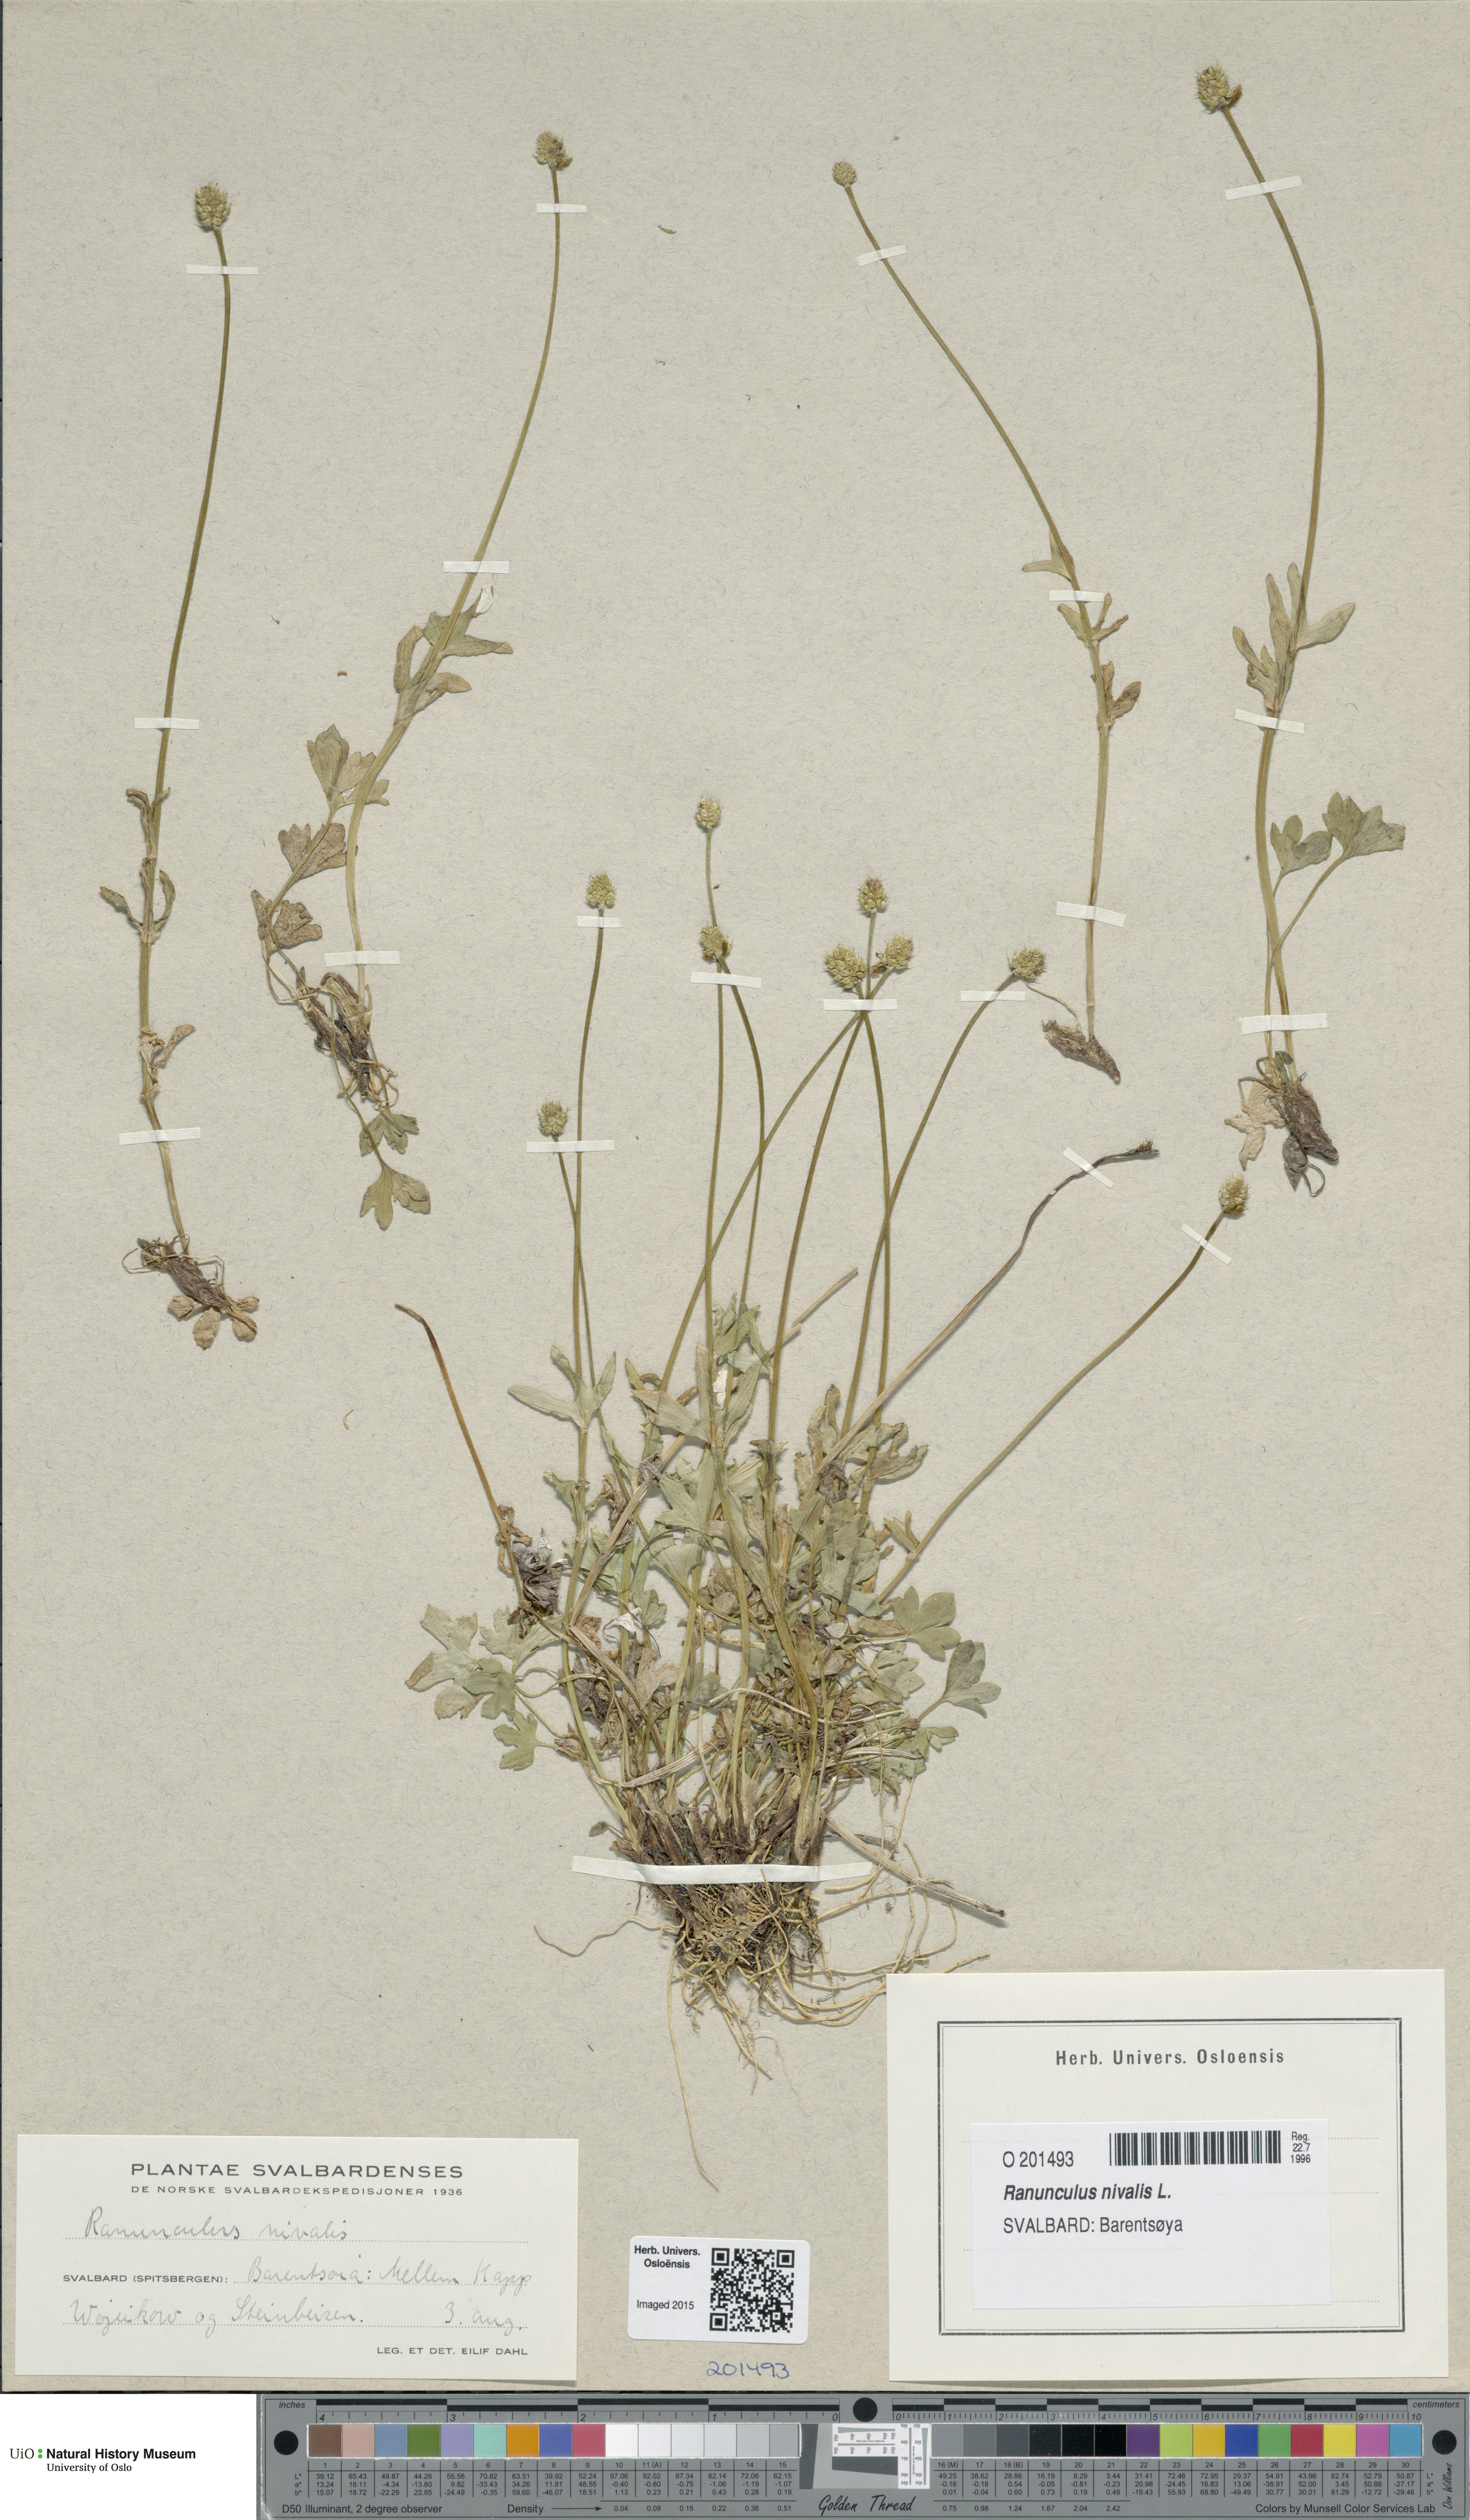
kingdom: Plantae
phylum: Tracheophyta
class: Magnoliopsida
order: Ranunculales
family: Ranunculaceae
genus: Ranunculus
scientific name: Ranunculus nivalis
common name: Snow buttercup
